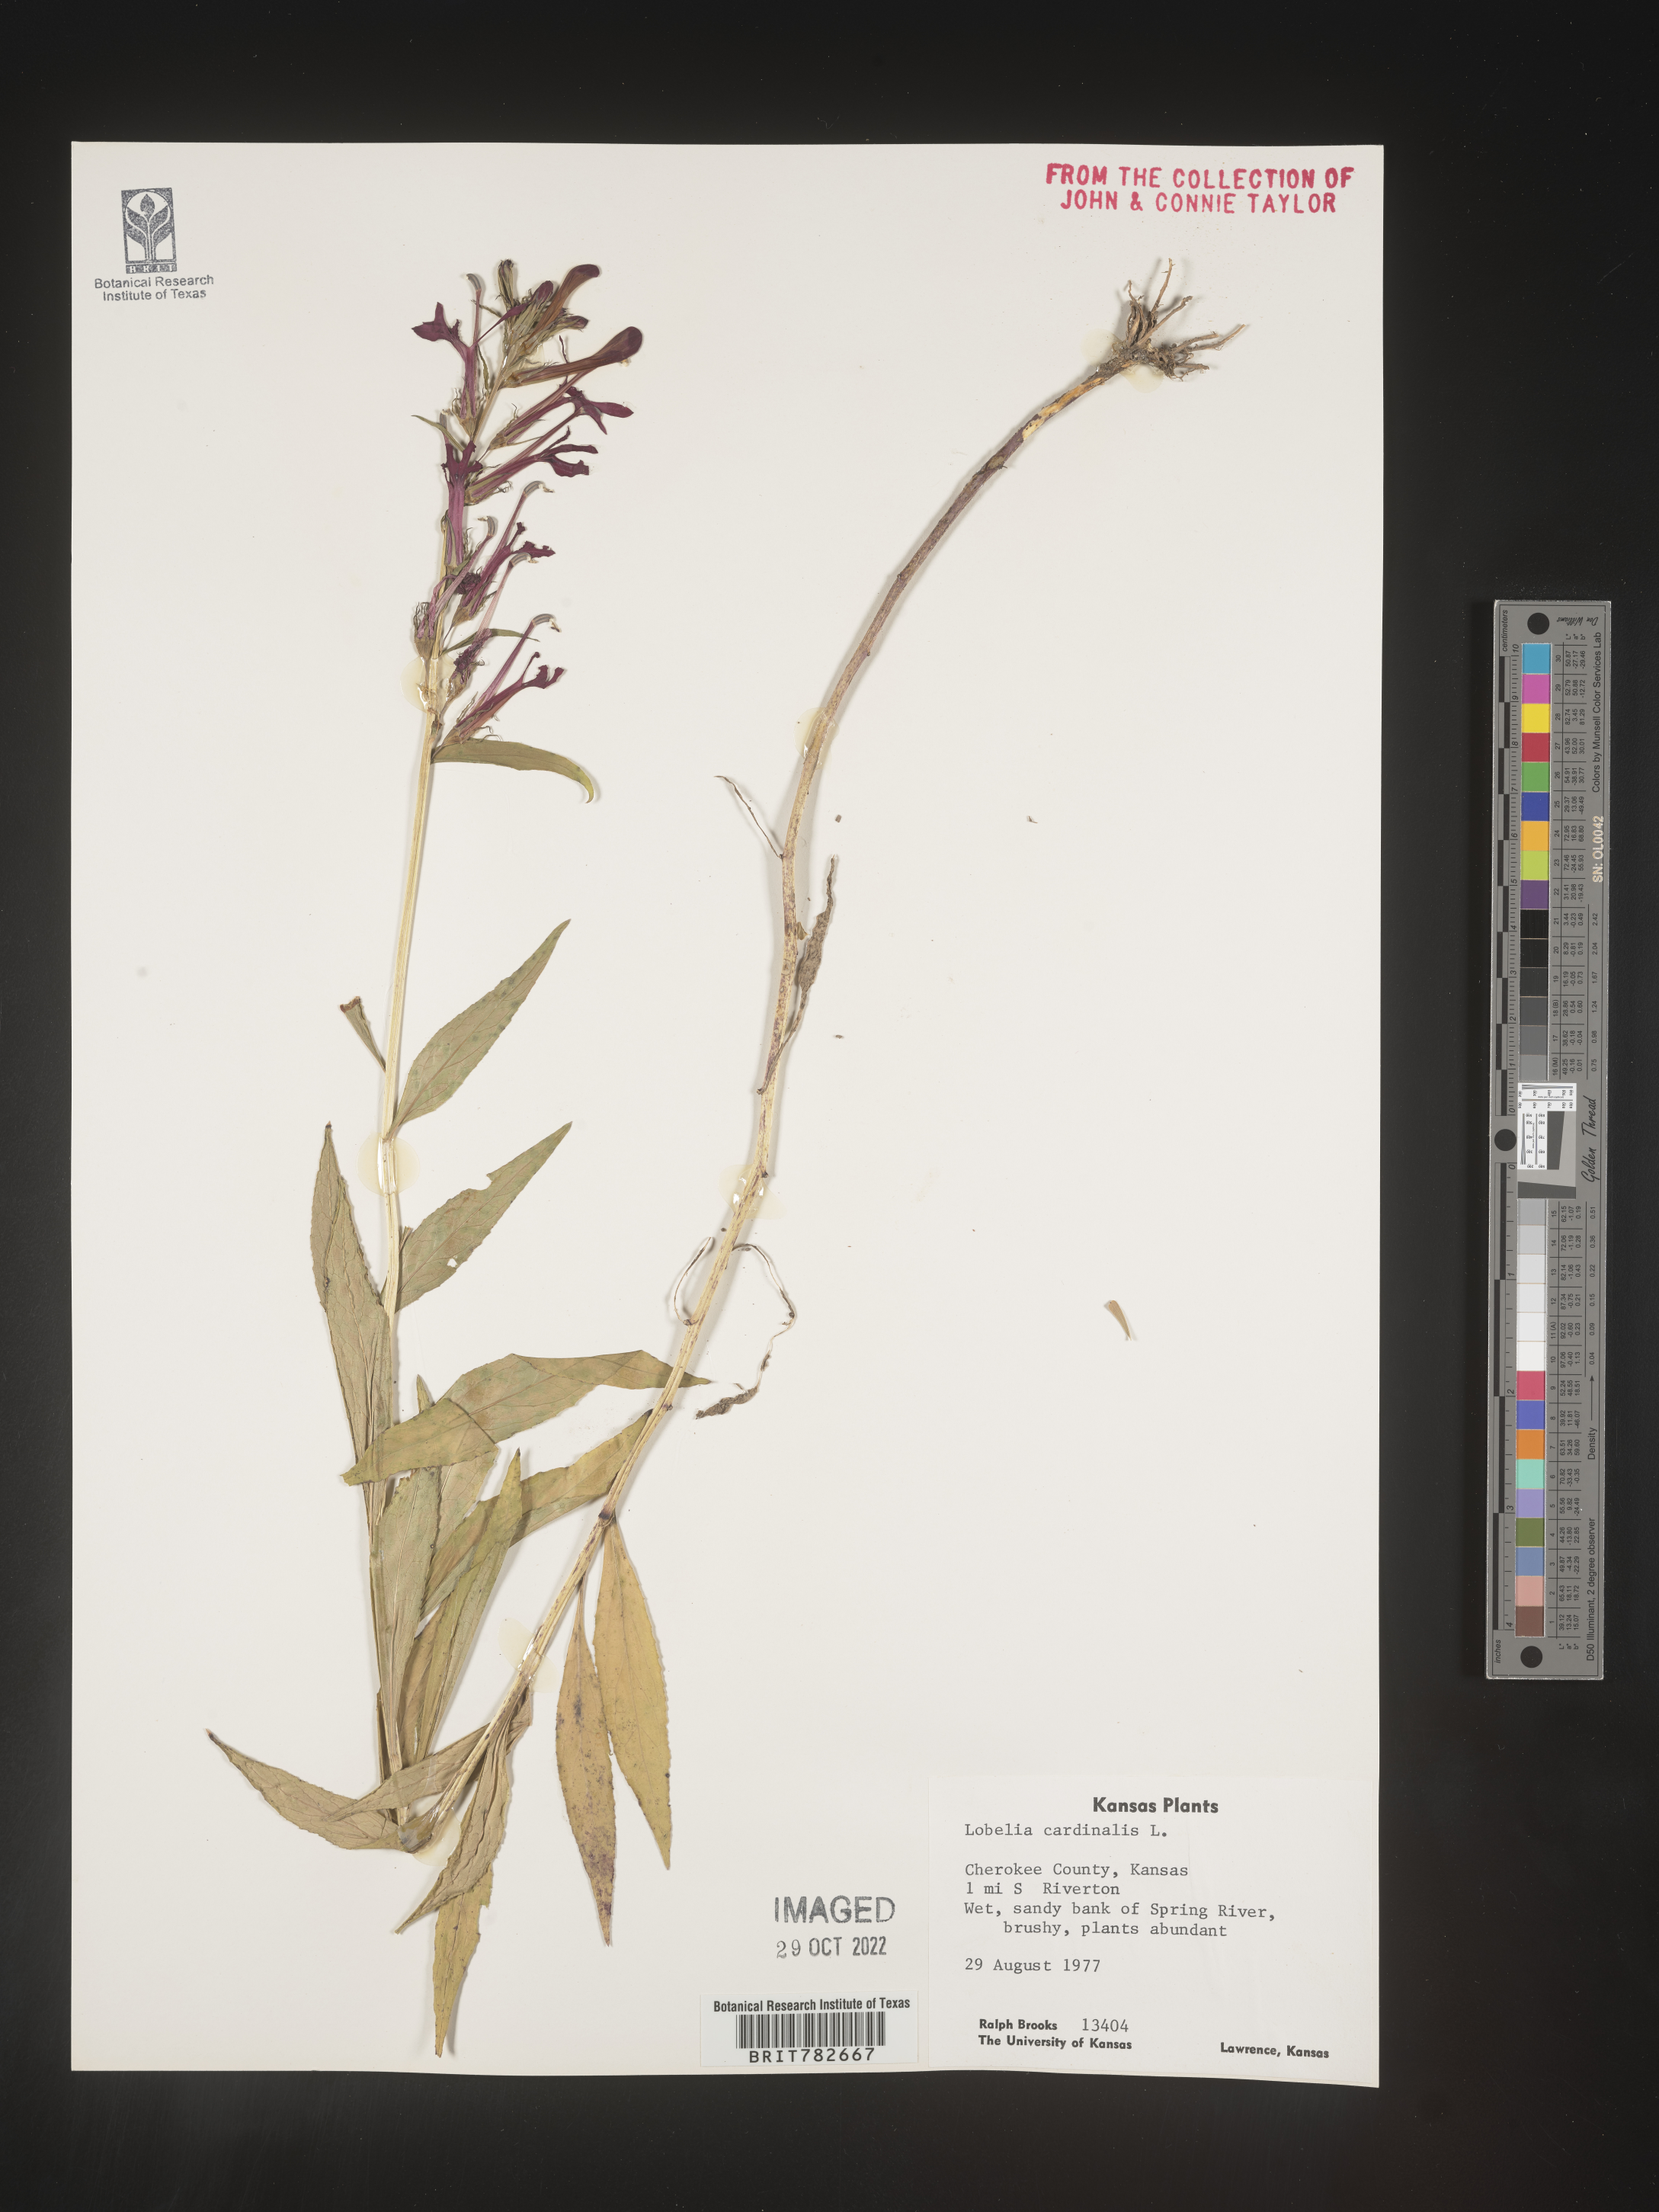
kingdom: Plantae
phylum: Tracheophyta
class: Magnoliopsida
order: Asterales
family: Campanulaceae
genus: Lobelia
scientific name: Lobelia cardinalis
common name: Cardinal flower
